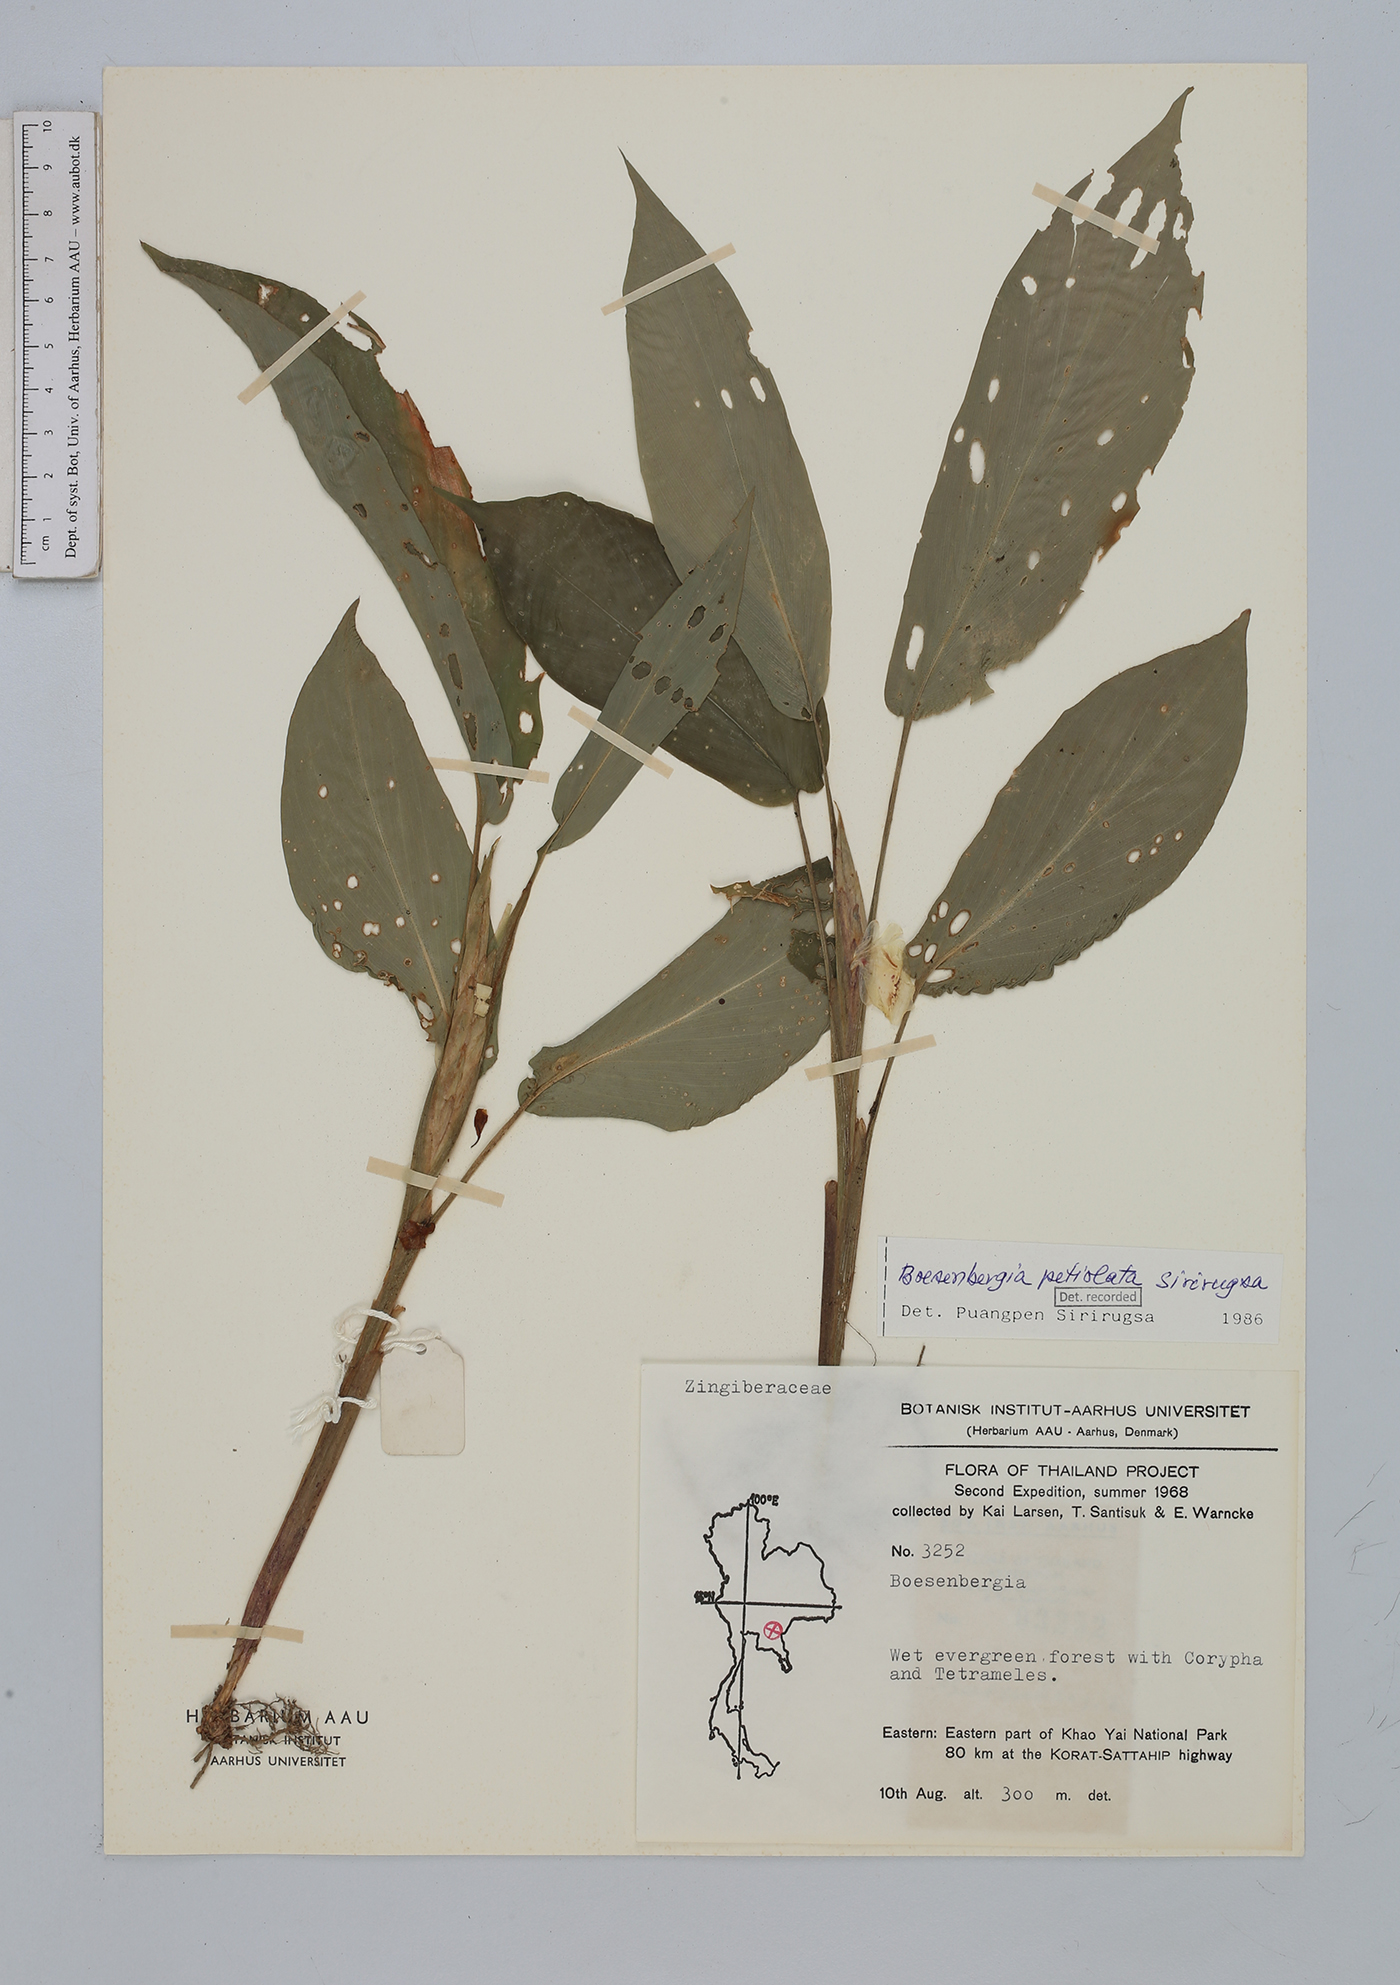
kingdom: Plantae
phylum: Tracheophyta
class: Liliopsida
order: Zingiberales
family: Zingiberaceae
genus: Boesenbergia
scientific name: Boesenbergia petiolata
